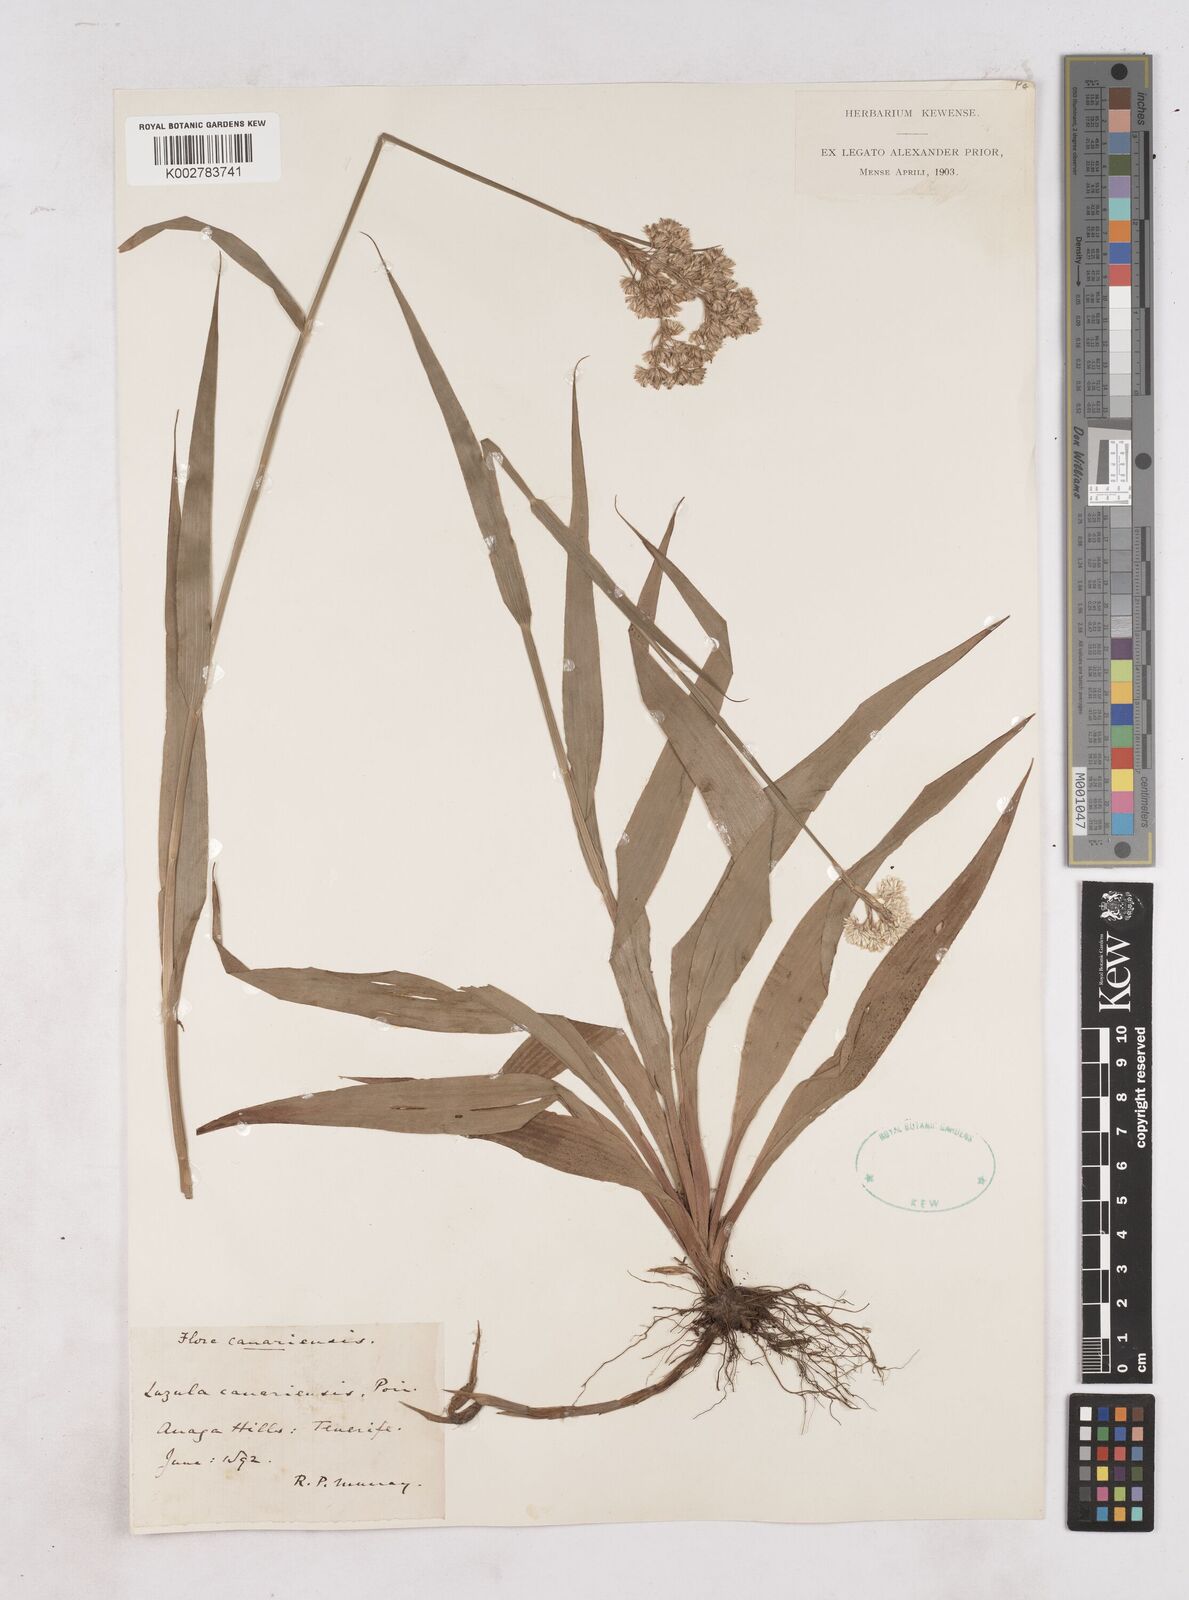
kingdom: Plantae
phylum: Tracheophyta
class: Liliopsida
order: Poales
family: Juncaceae
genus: Luzula
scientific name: Luzula canariensis
